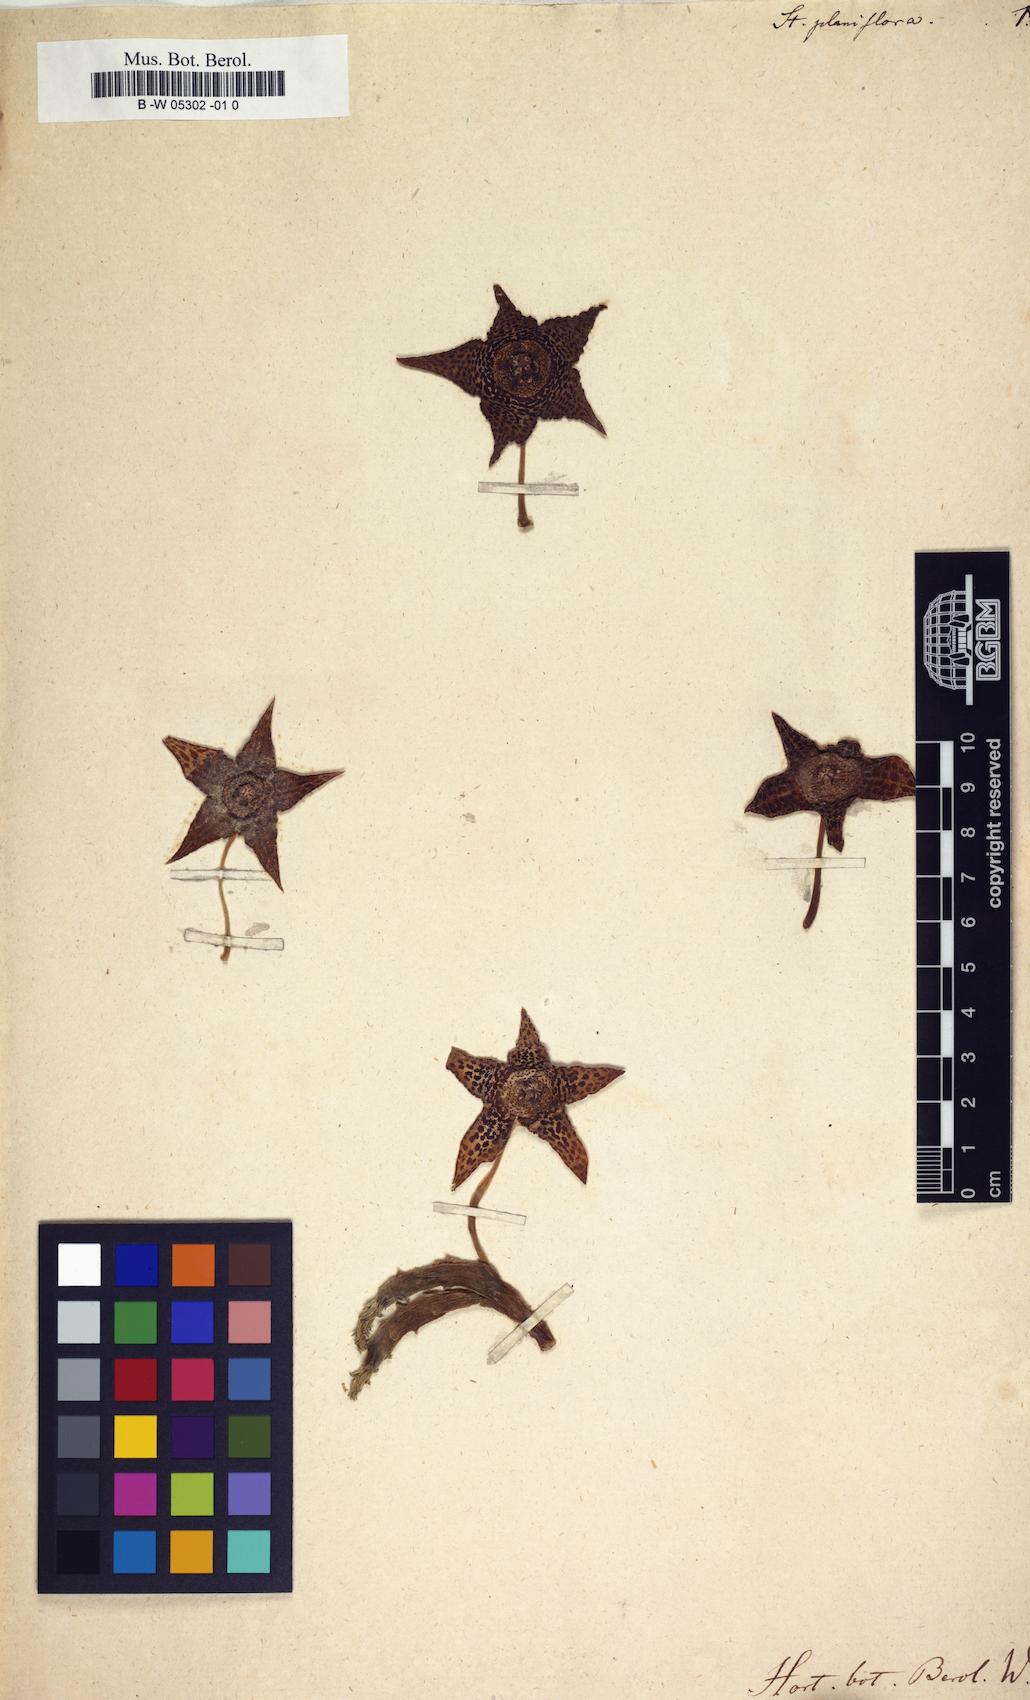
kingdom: Plantae
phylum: Tracheophyta
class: Magnoliopsida
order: Gentianales
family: Apocynaceae
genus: Ceropegia
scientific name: Ceropegia mixta
